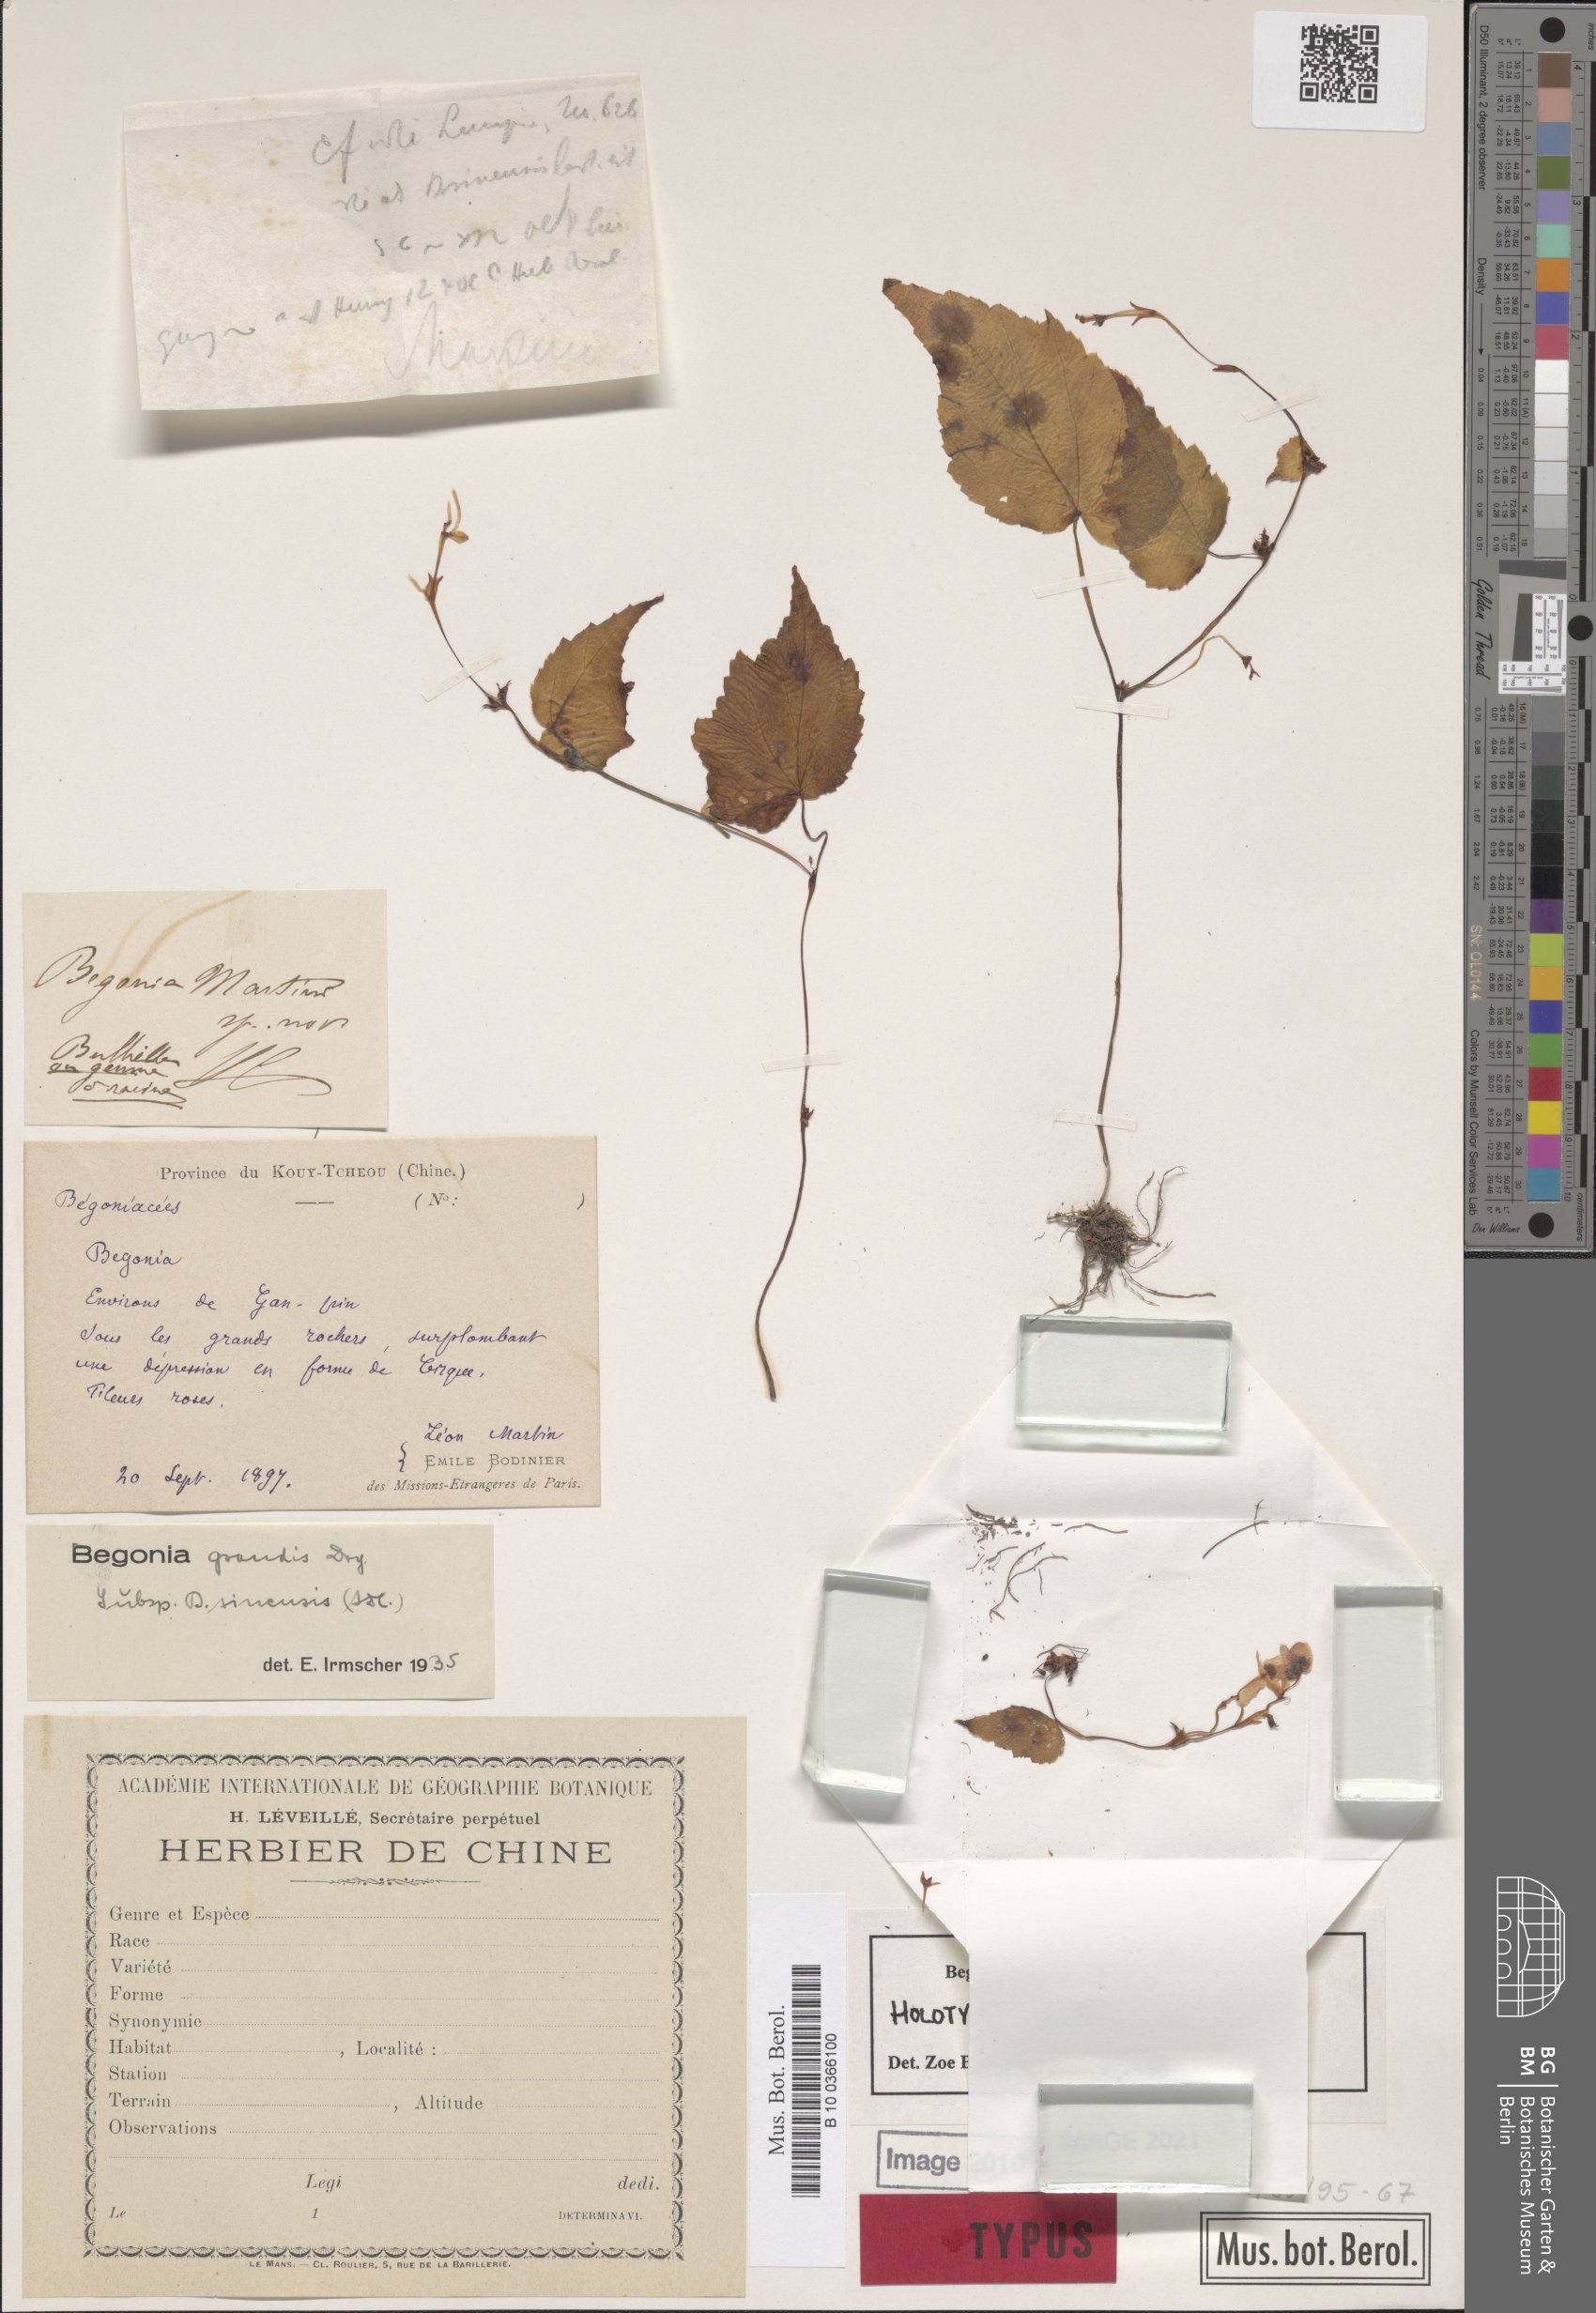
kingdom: Plantae
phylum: Tracheophyta
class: Magnoliopsida
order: Cucurbitales
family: Begoniaceae
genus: Begonia
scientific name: Begonia grandis
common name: Hardy begonia
